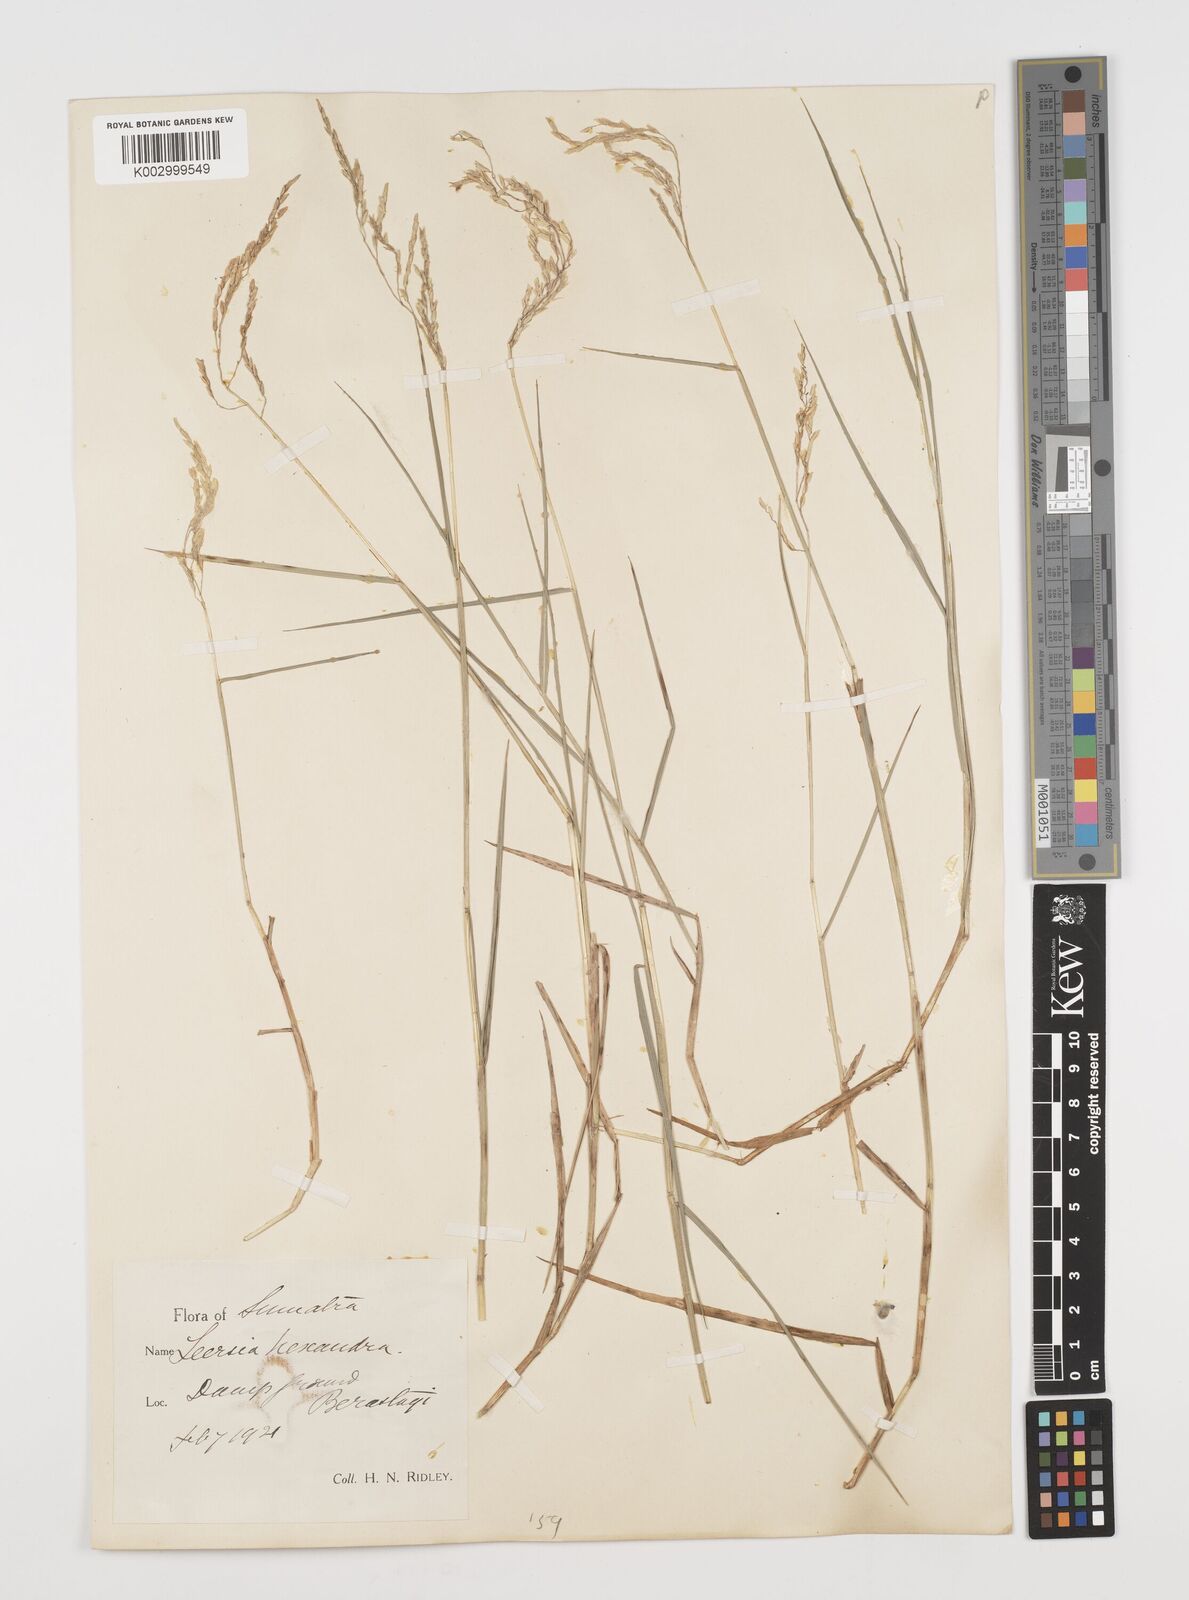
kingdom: Plantae
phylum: Tracheophyta
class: Liliopsida
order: Poales
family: Poaceae
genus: Leersia
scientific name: Leersia hexandra
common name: Southern cut grass
